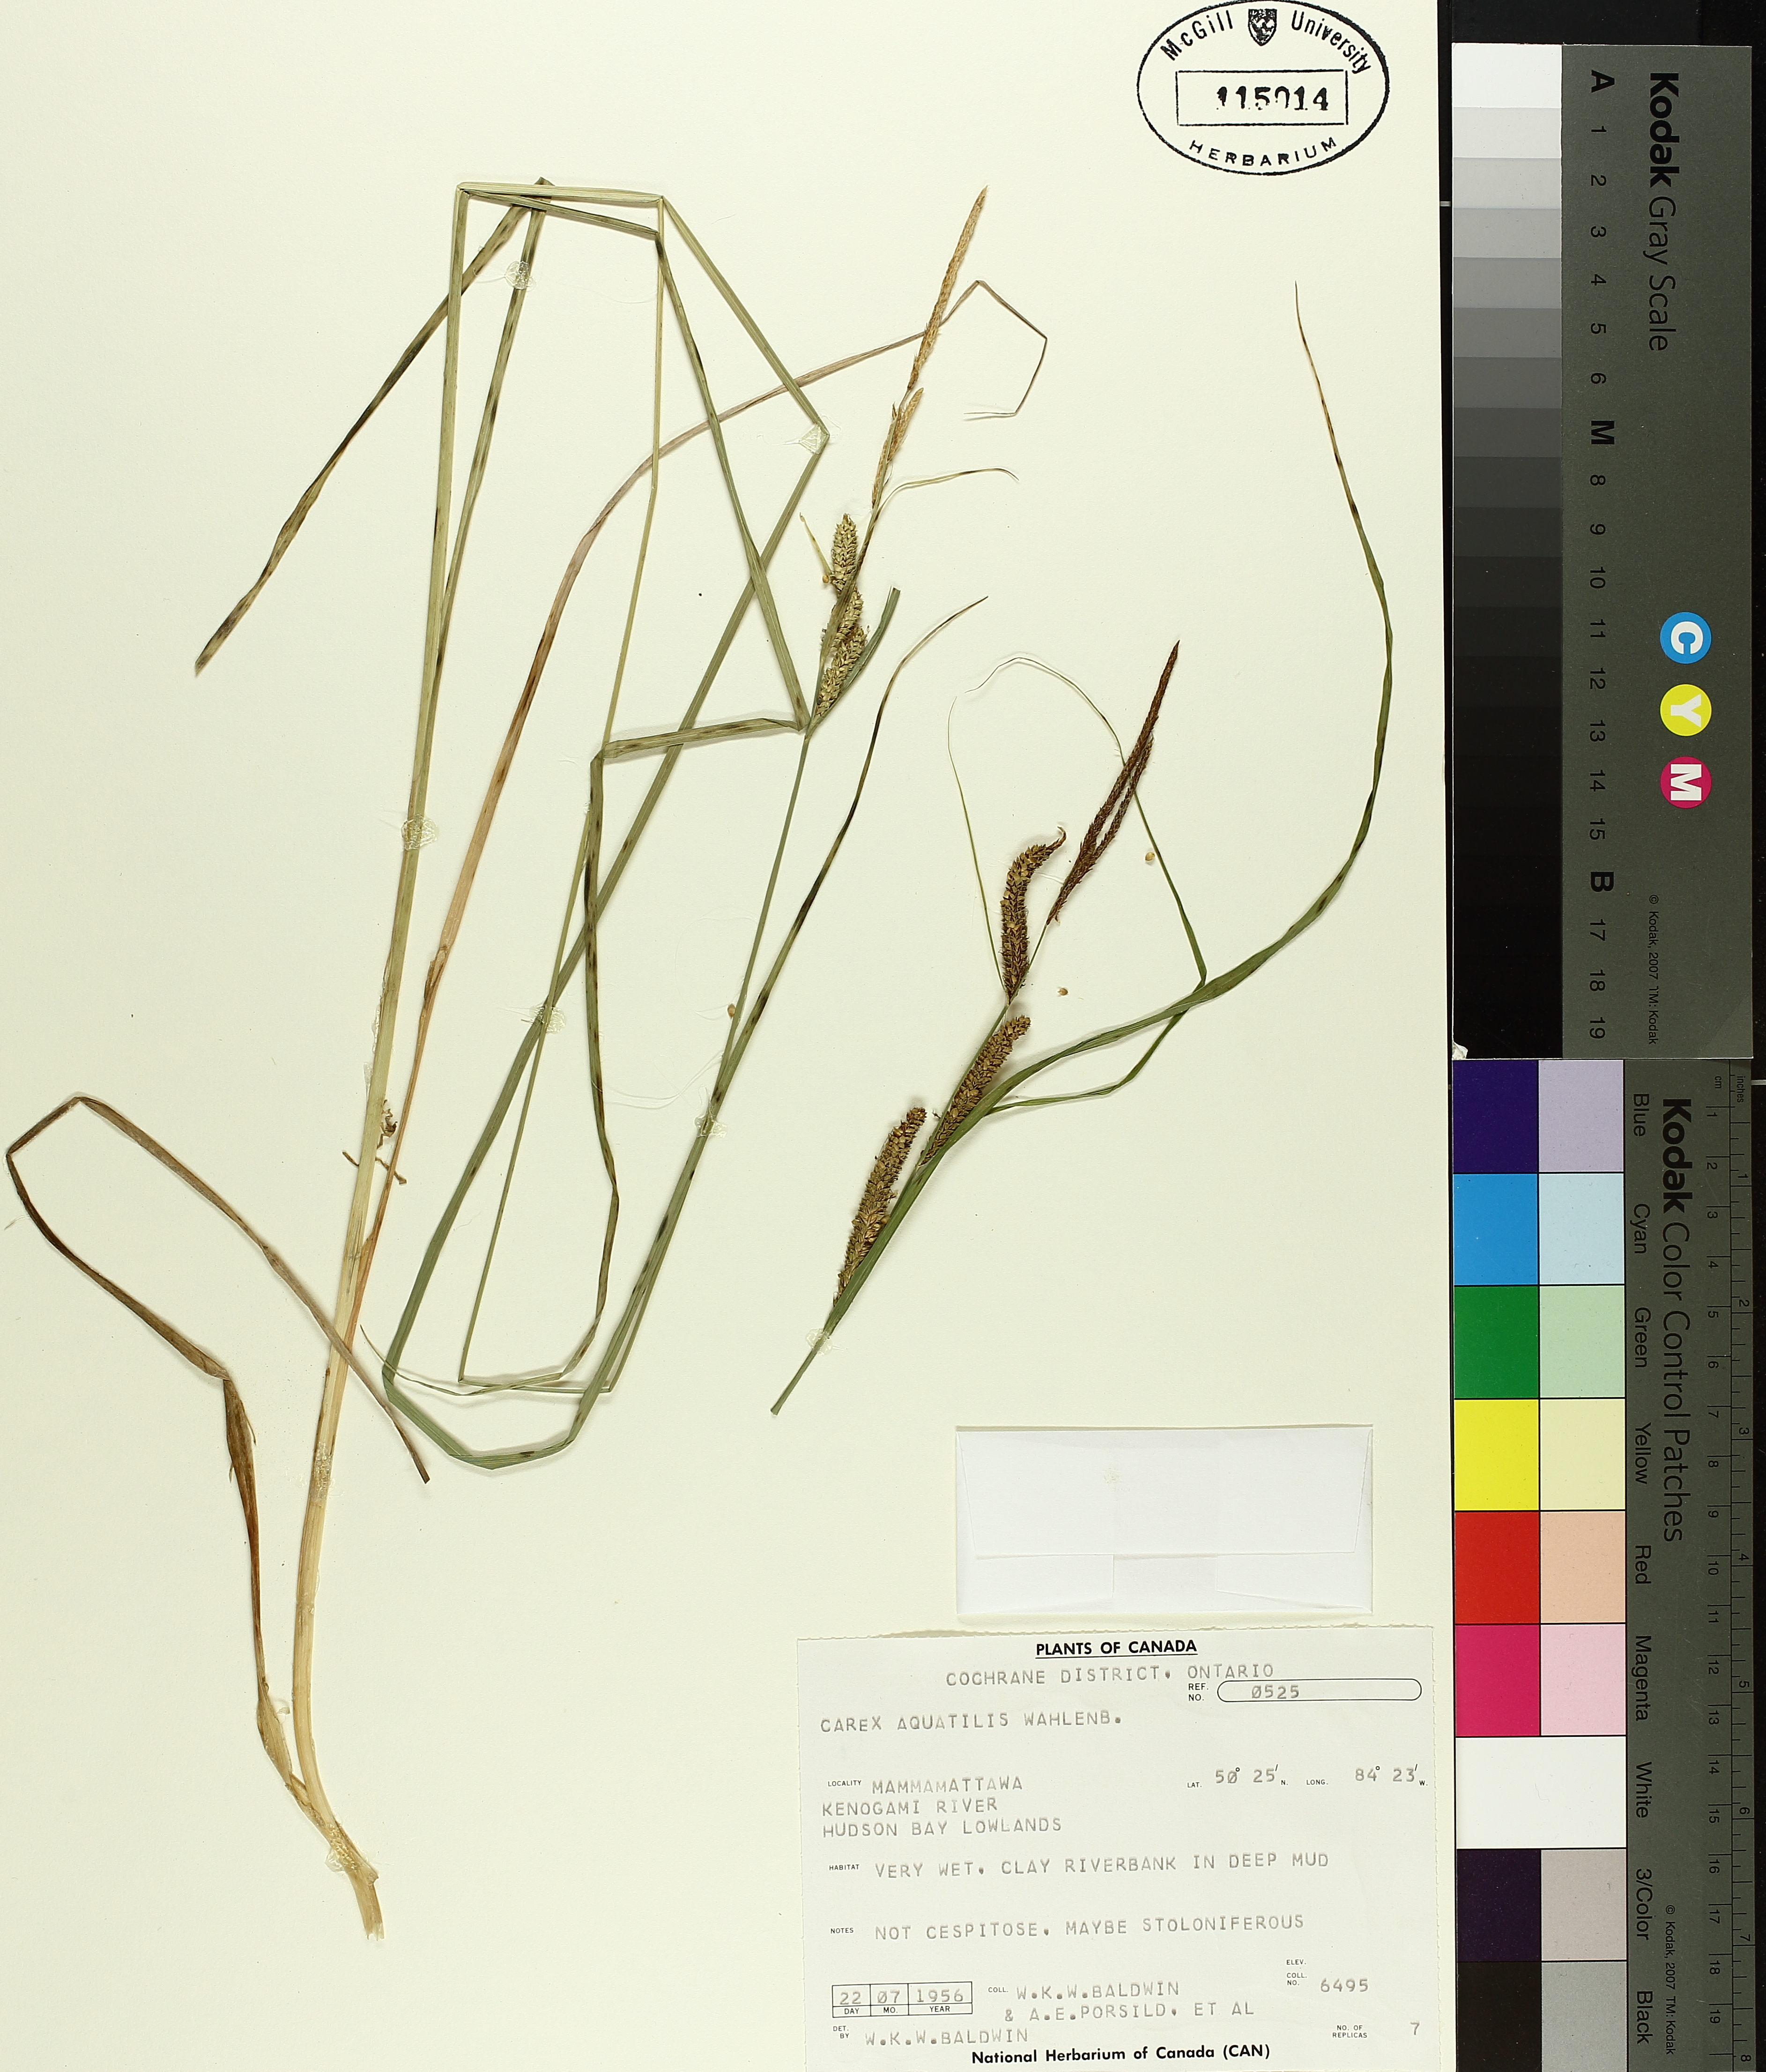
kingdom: Plantae
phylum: Tracheophyta
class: Liliopsida
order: Poales
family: Cyperaceae
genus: Carex
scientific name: Carex aquatilis
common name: Water sedge
